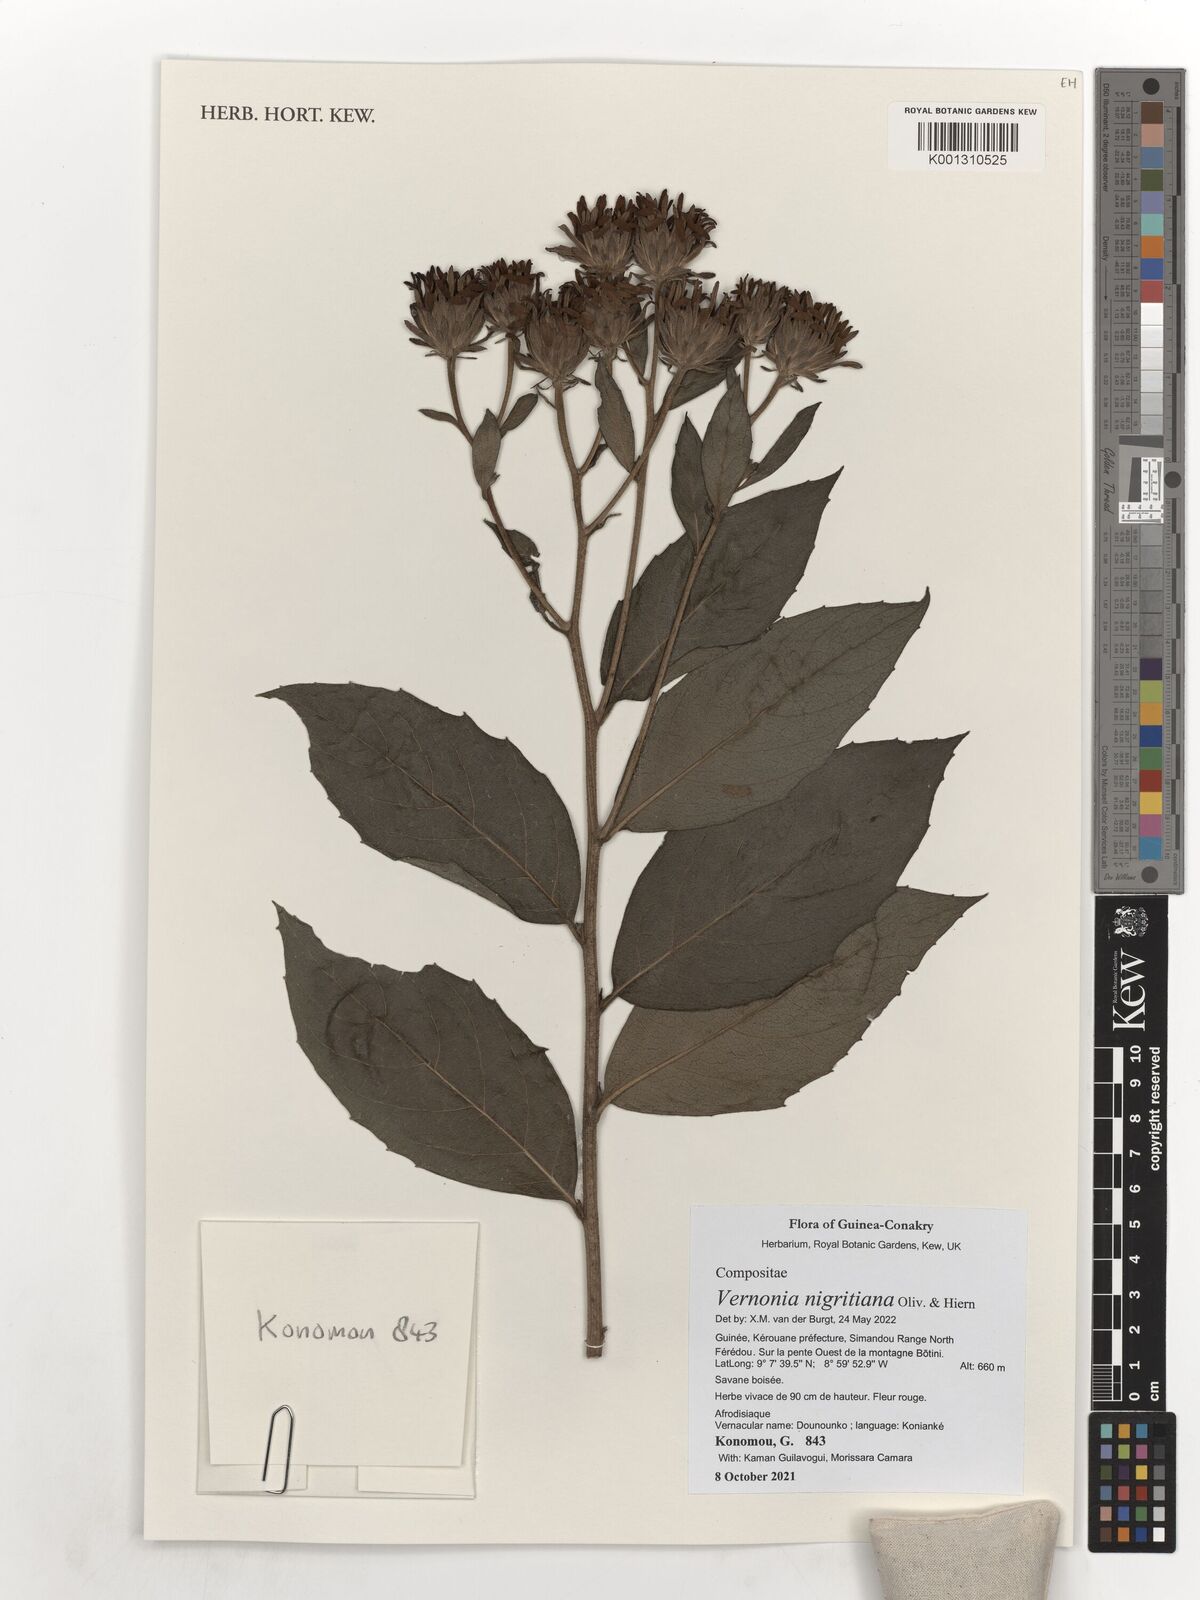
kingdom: Plantae
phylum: Tracheophyta
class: Magnoliopsida
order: Asterales
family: Asteraceae
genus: Linzia
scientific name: Linzia nigritiana
